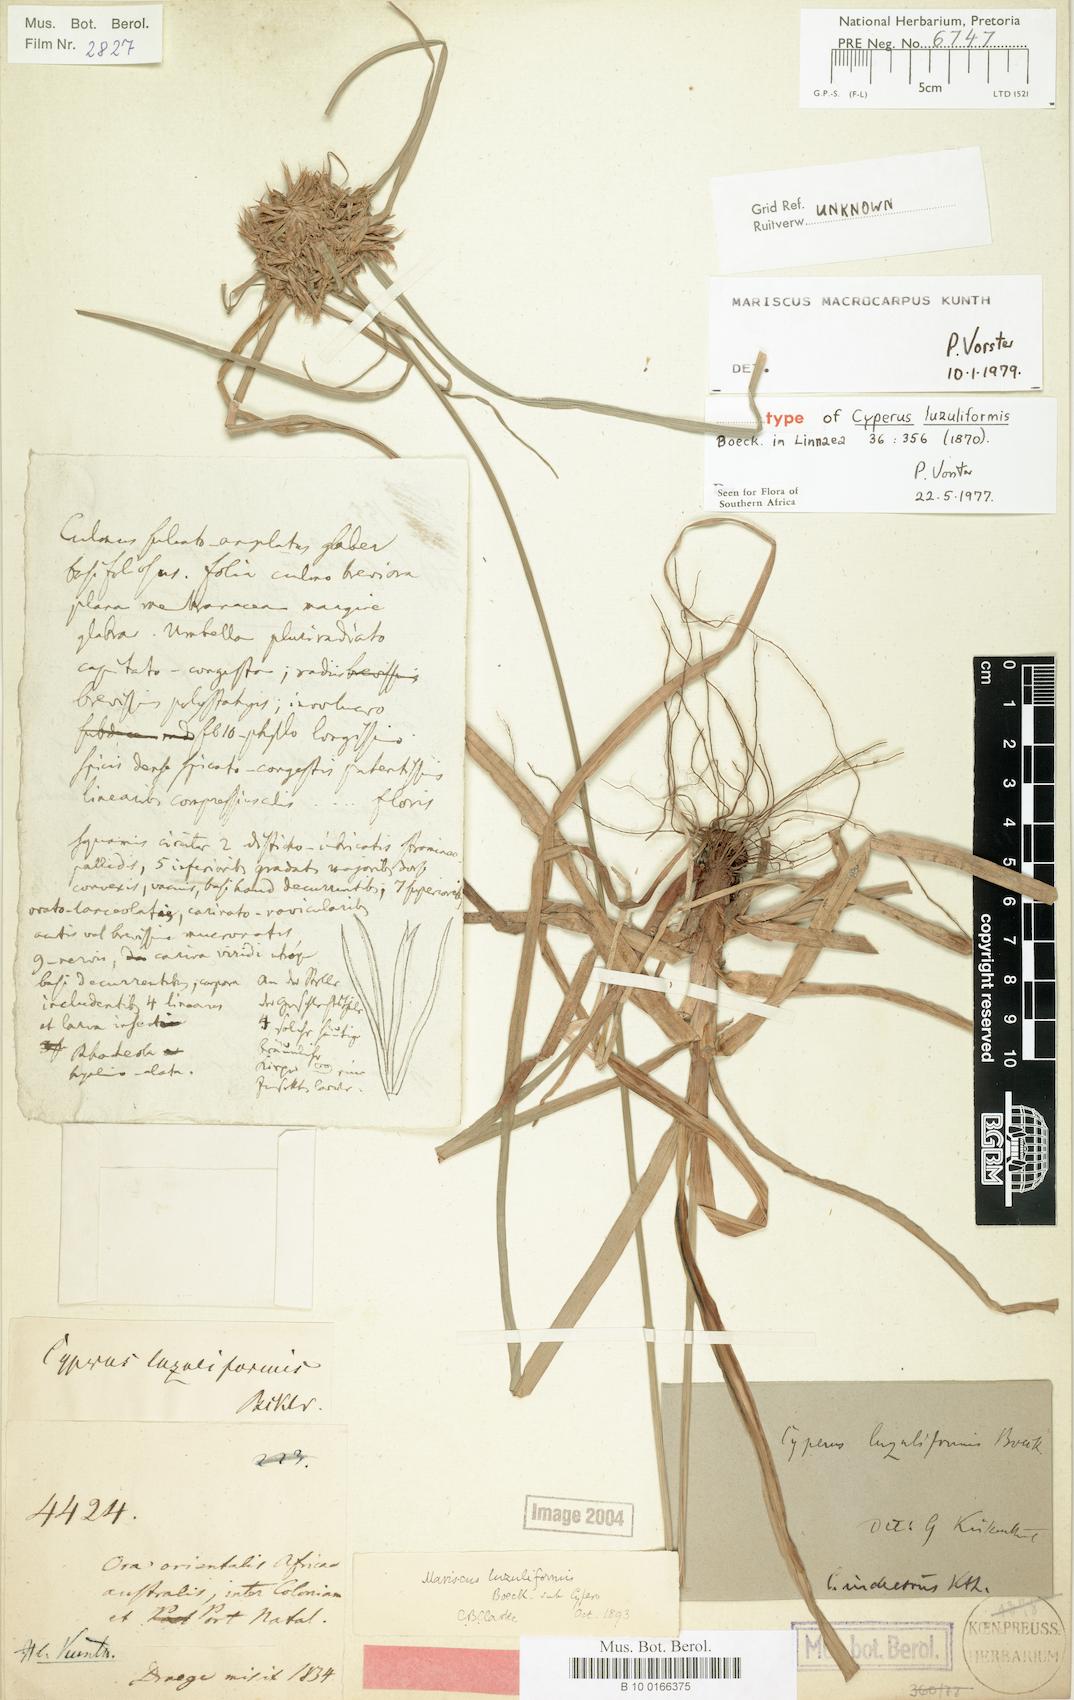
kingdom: Plantae
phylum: Tracheophyta
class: Liliopsida
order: Poales
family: Cyperaceae
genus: Cyperus
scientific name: Cyperus macrocarpus
